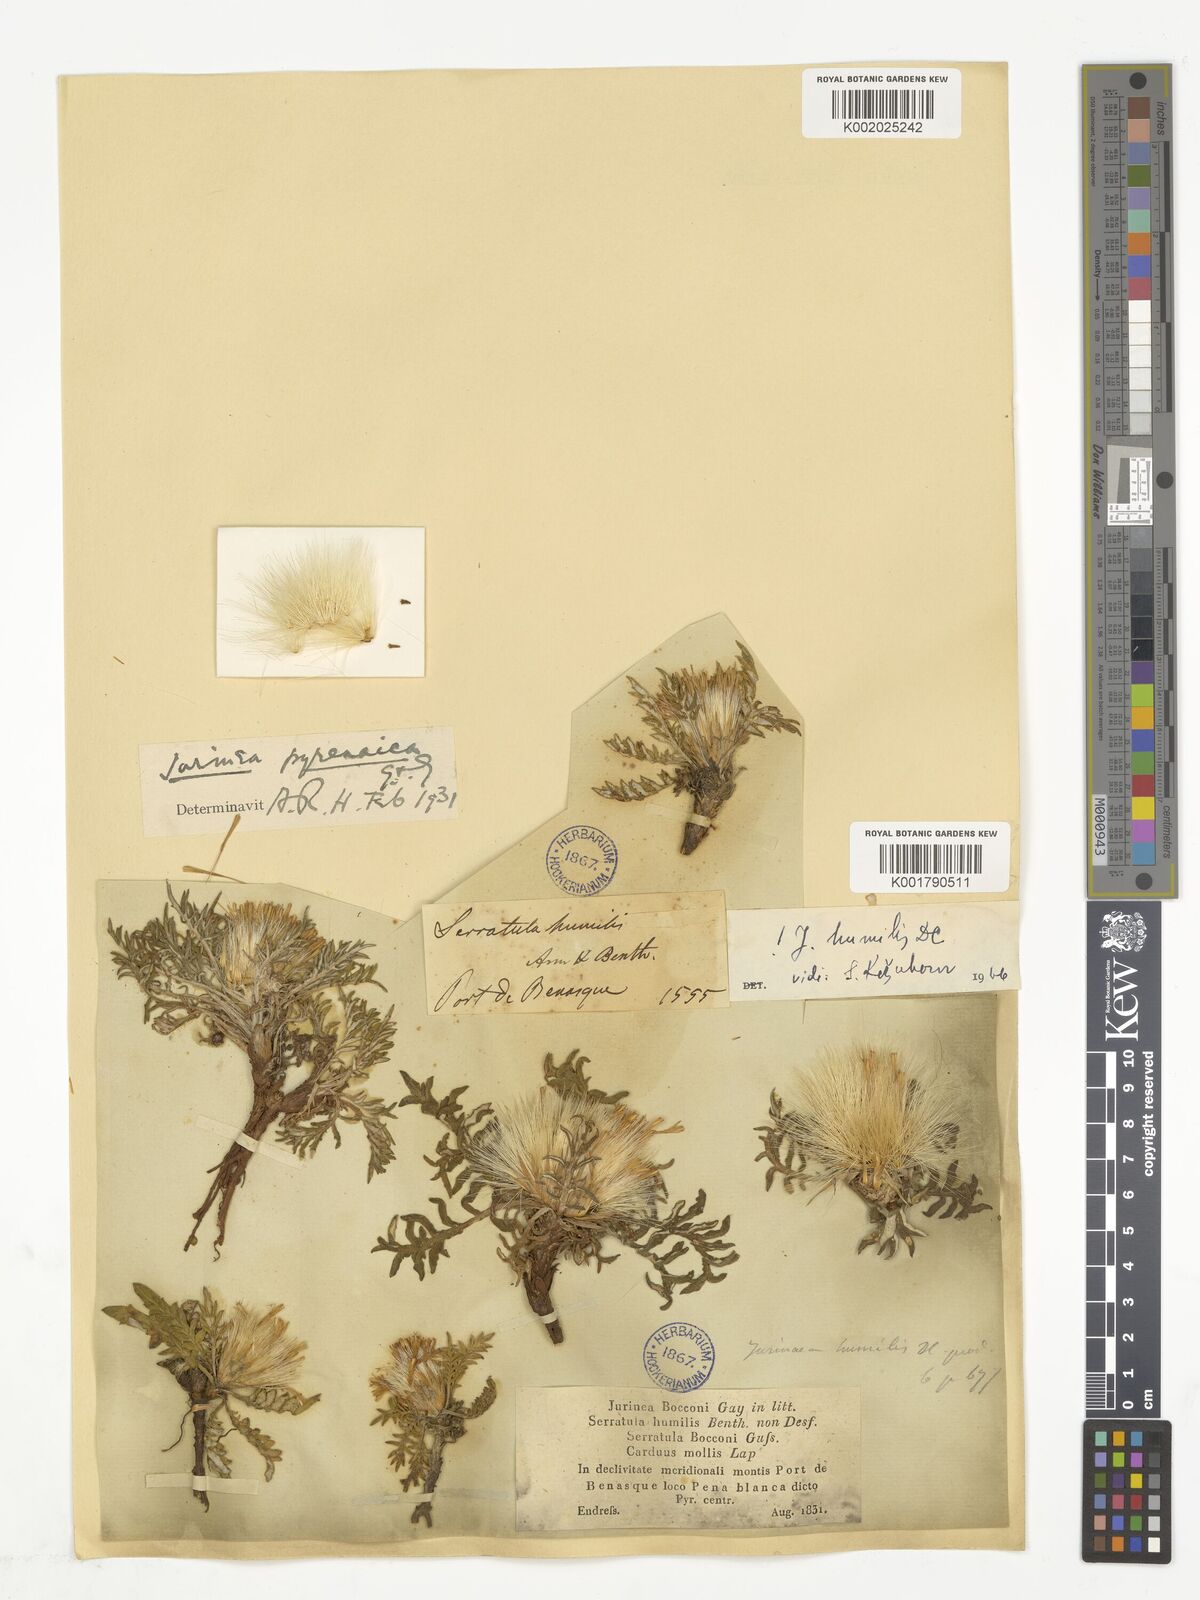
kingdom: Plantae
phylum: Tracheophyta
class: Magnoliopsida
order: Asterales
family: Asteraceae
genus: Jurinea
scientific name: Jurinea humilis
